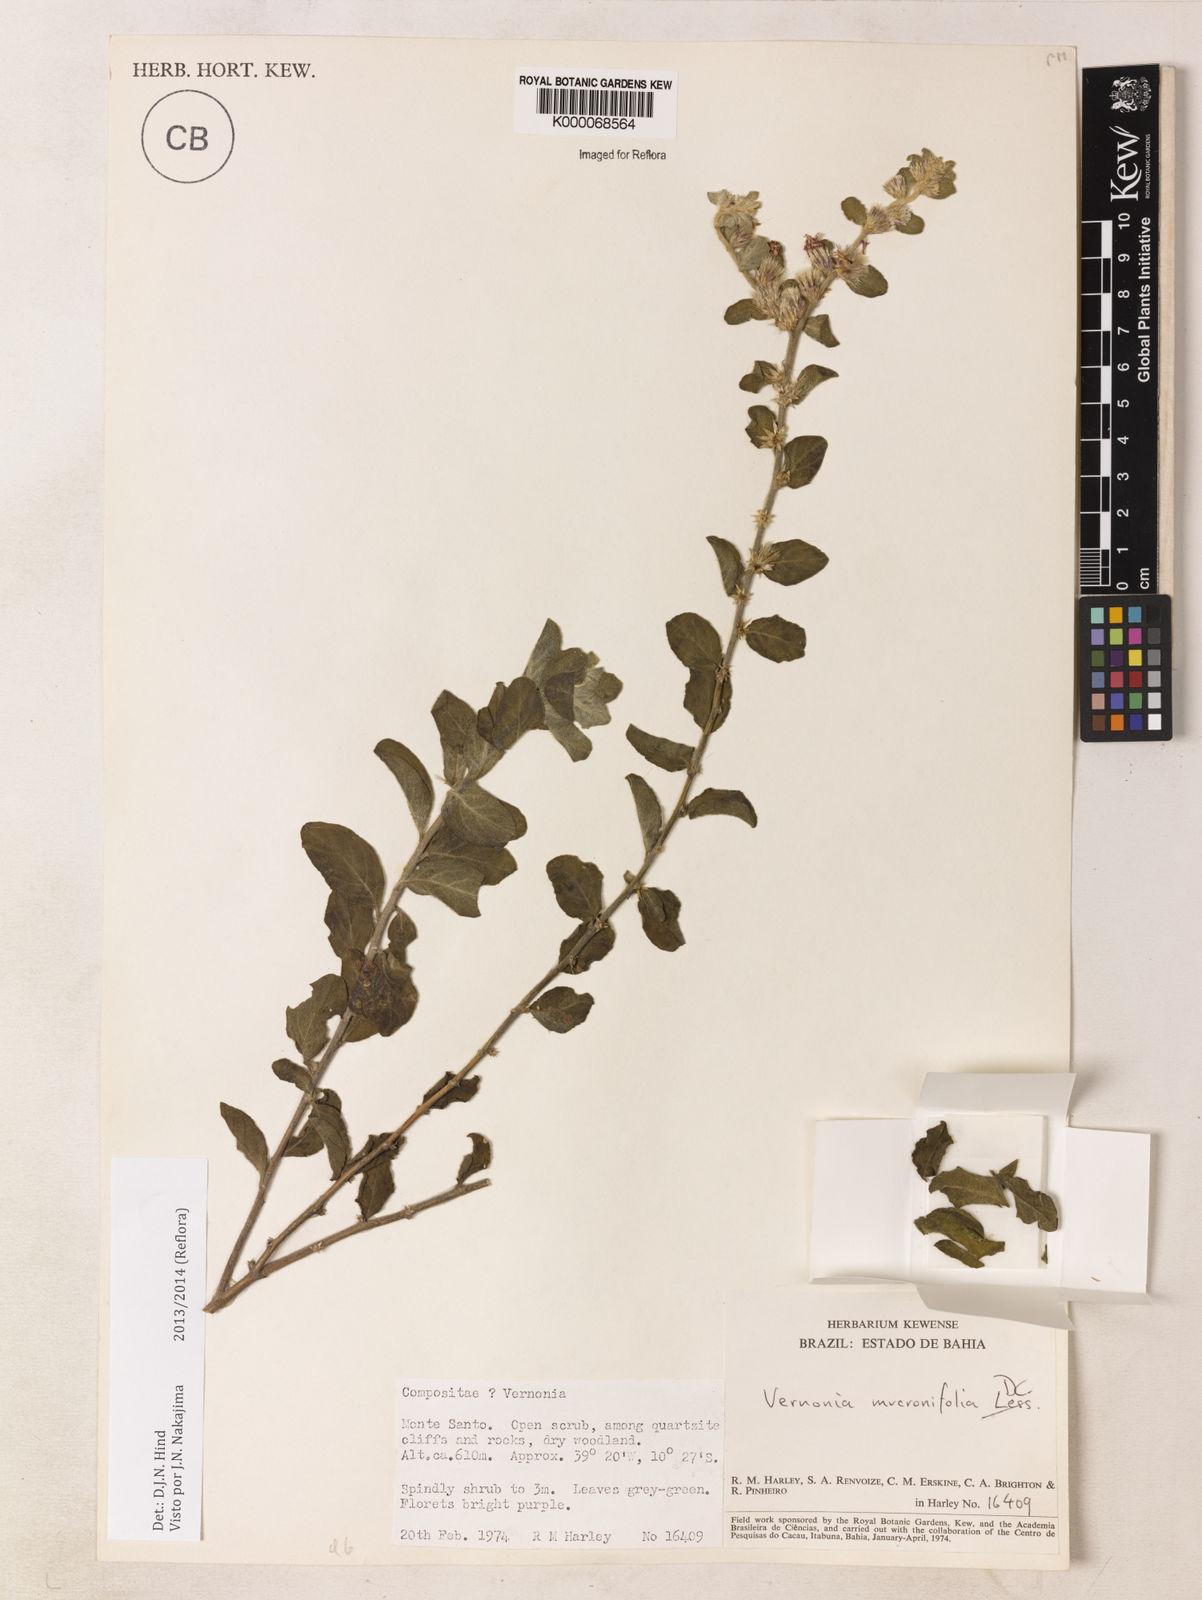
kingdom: Plantae
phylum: Tracheophyta
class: Magnoliopsida
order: Asterales
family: Asteraceae
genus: Lepidaploa
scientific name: Lepidaploa mucronifolia
